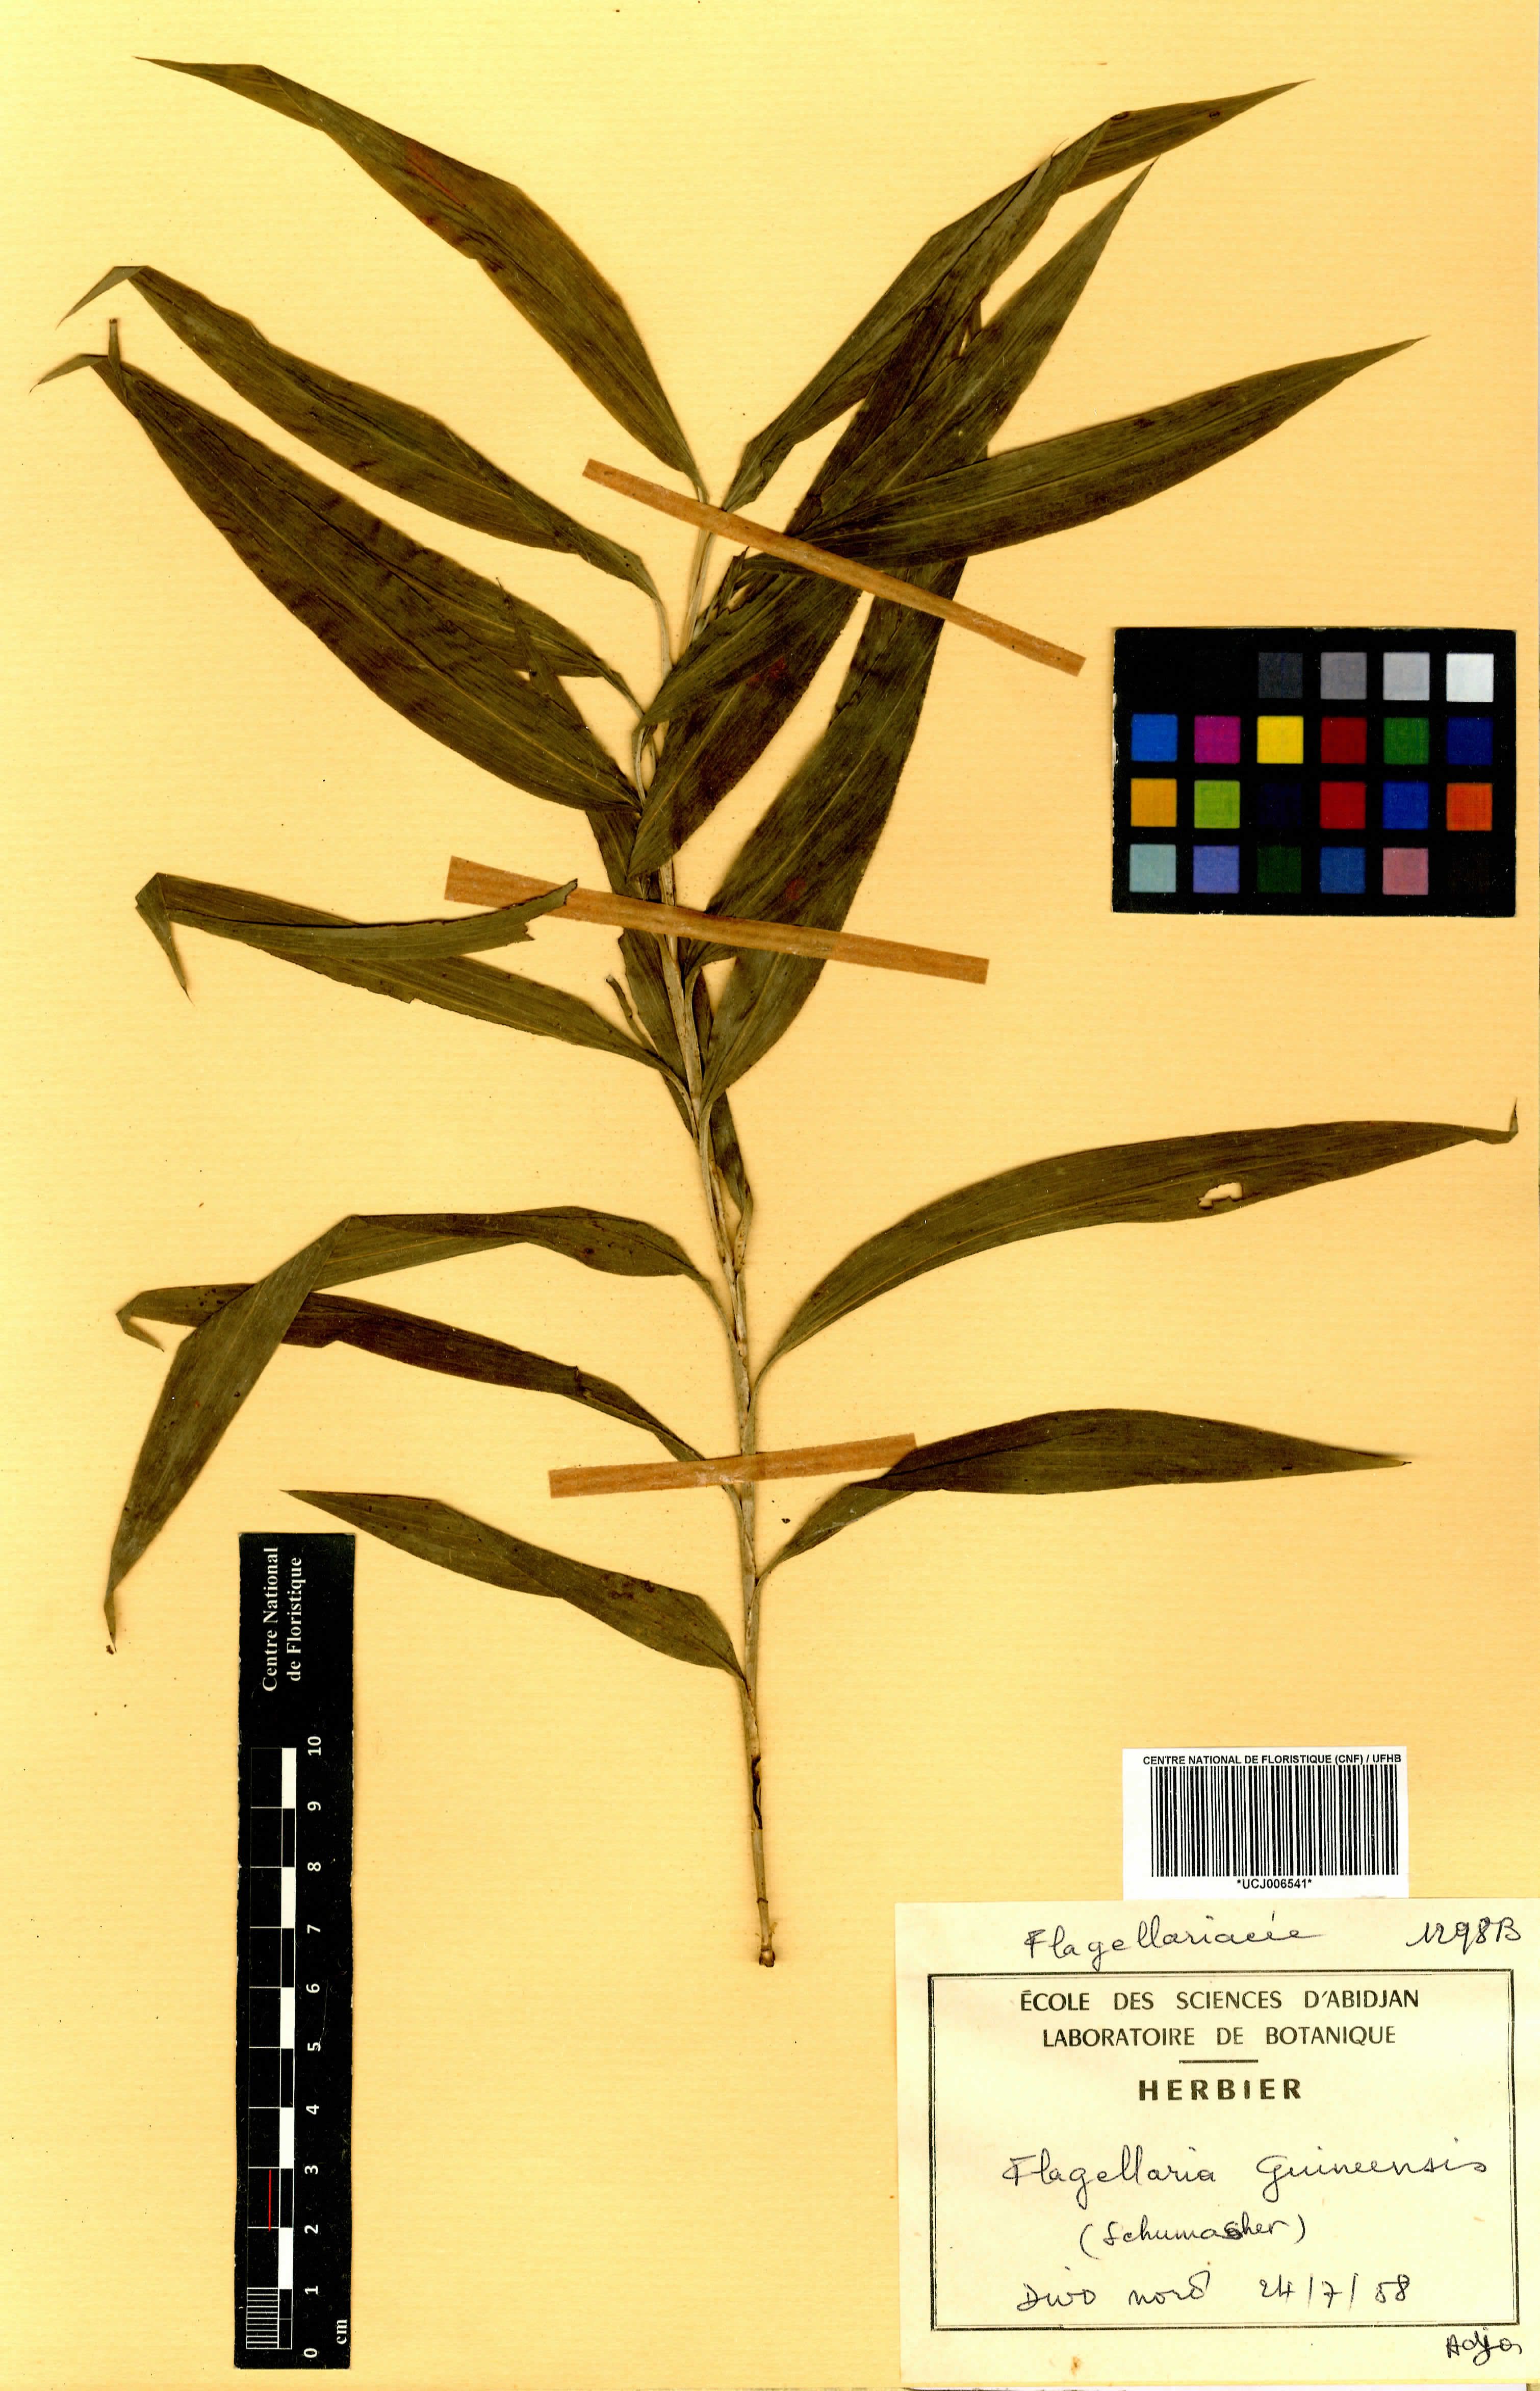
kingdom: Plantae
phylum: Tracheophyta
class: Liliopsida
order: Poales
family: Flagellariaceae
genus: Flagellaria
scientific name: Flagellaria guineensis
